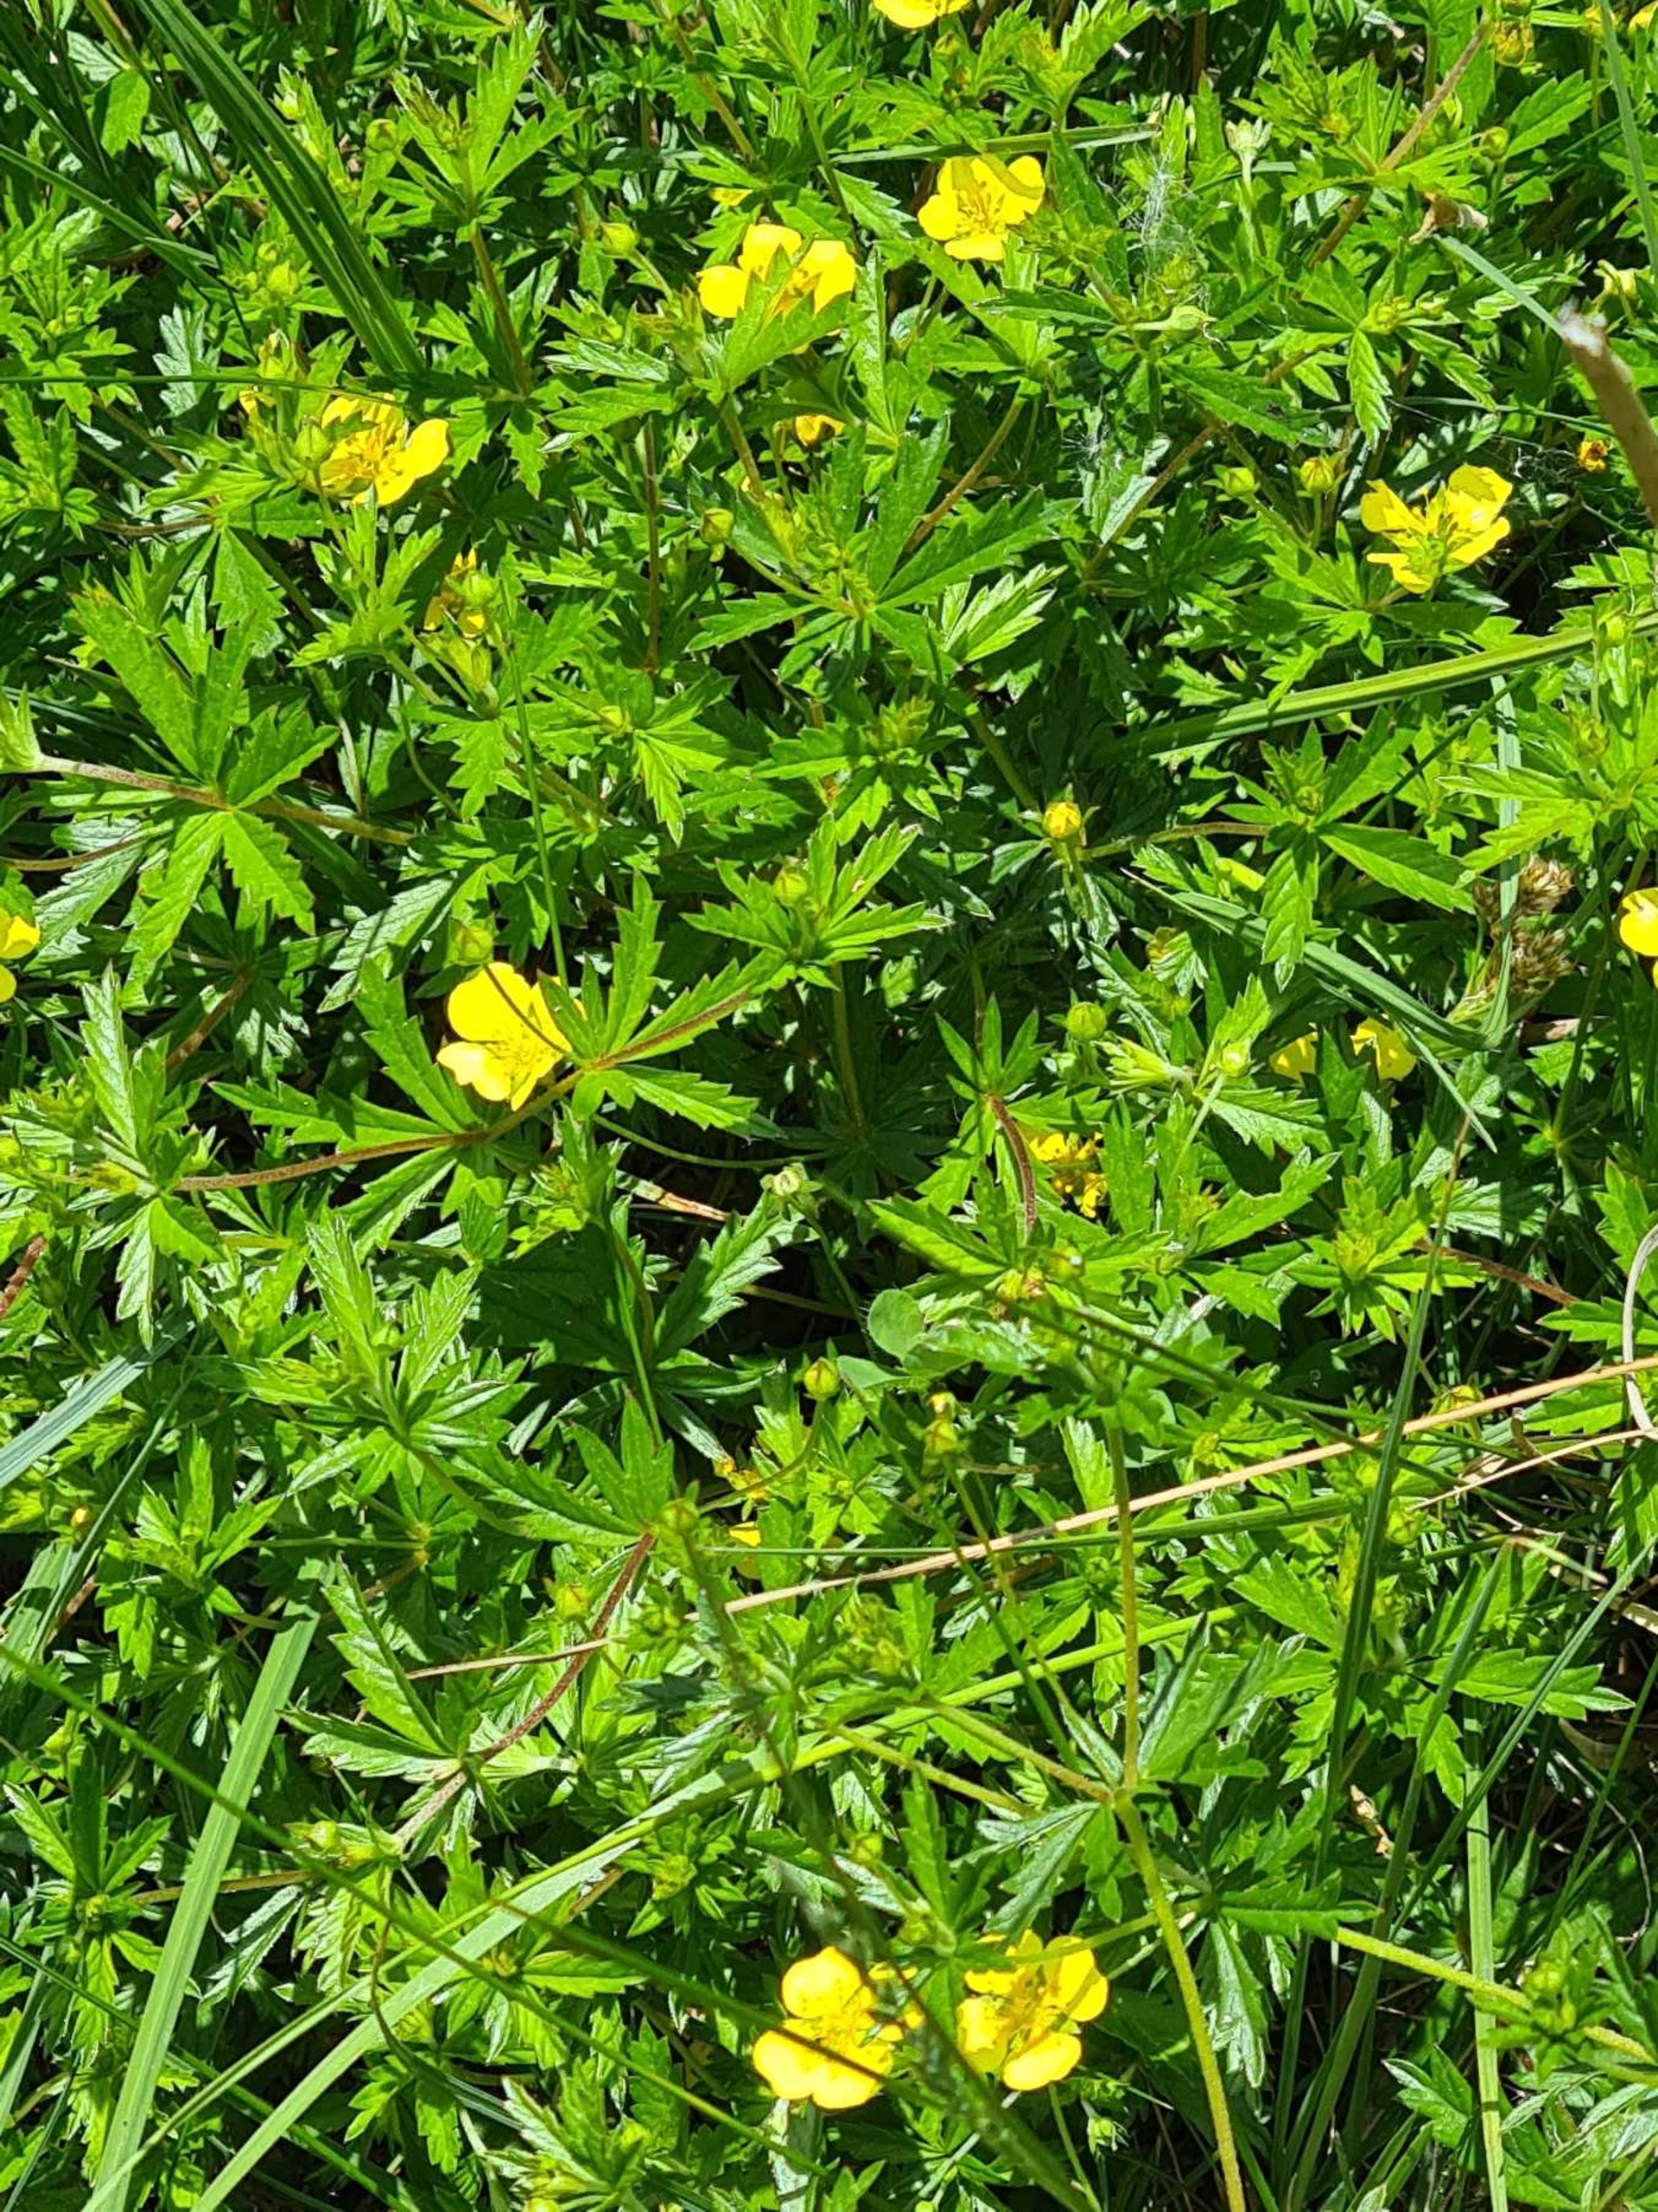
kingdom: Plantae
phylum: Tracheophyta
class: Magnoliopsida
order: Rosales
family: Rosaceae
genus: Potentilla
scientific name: Potentilla erecta
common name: Tormentil
